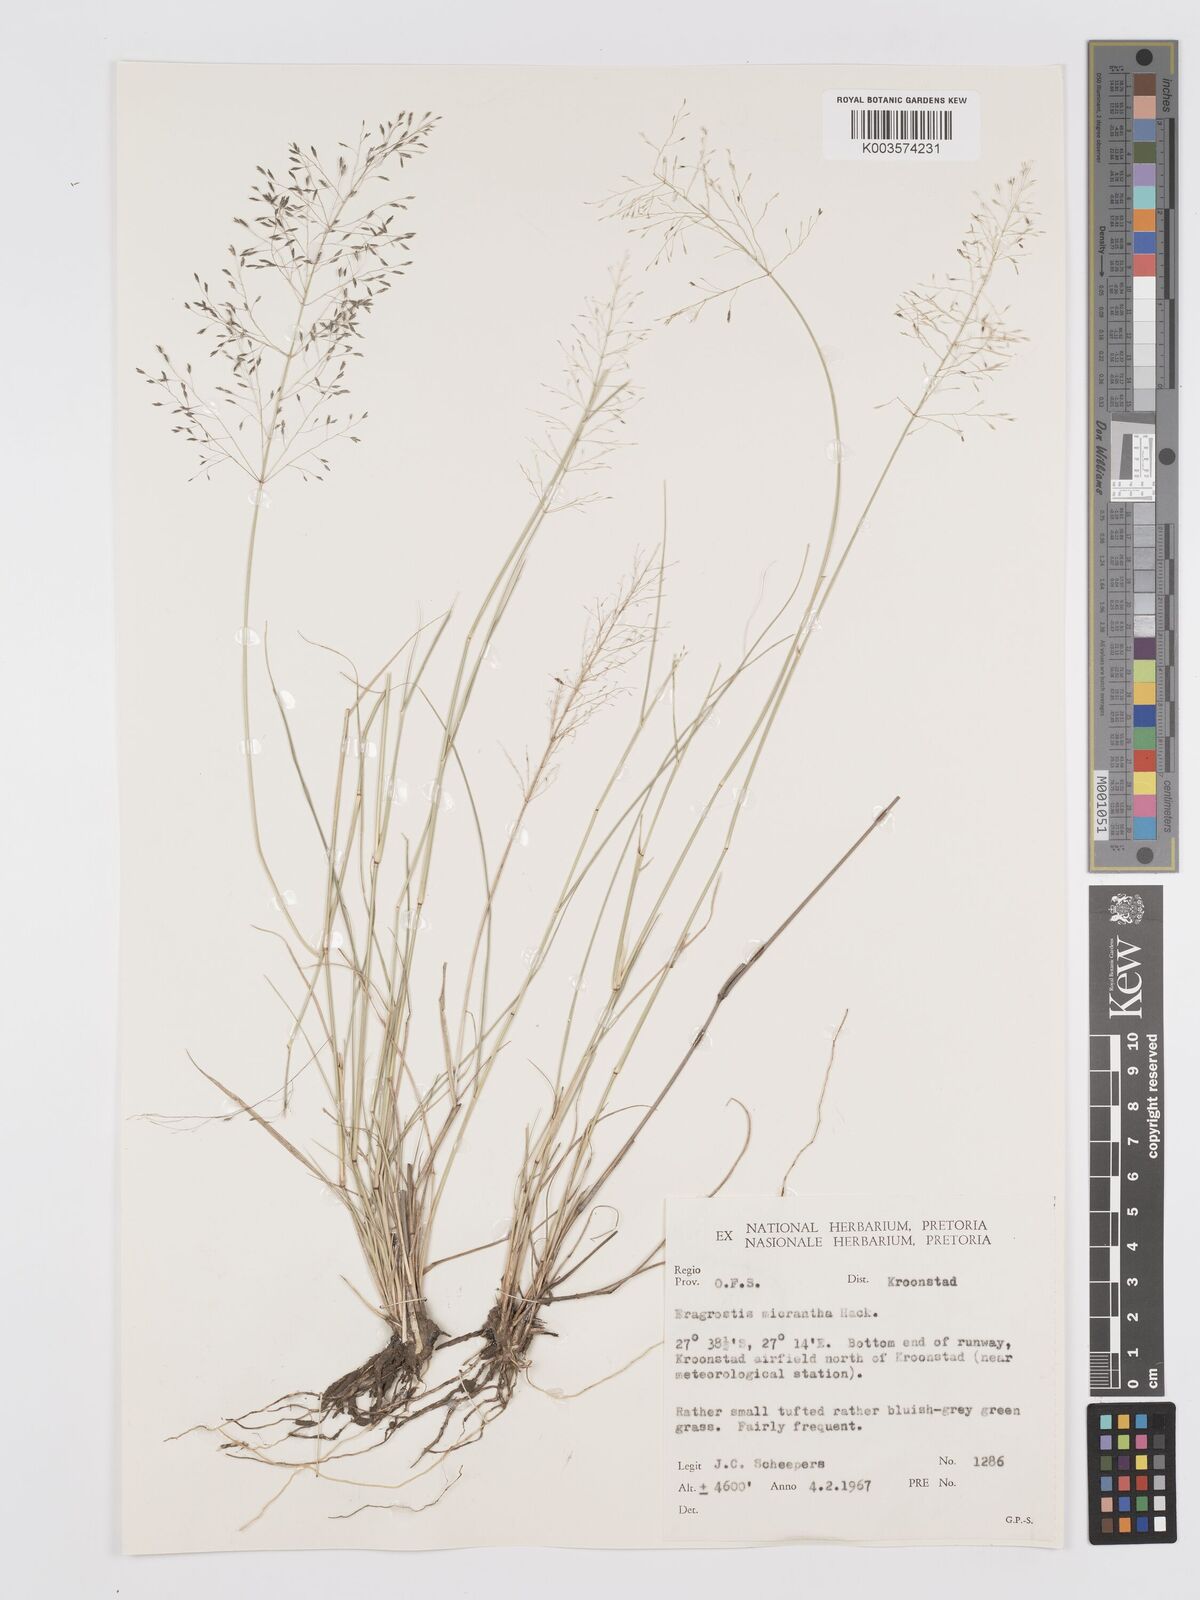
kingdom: Plantae
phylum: Tracheophyta
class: Liliopsida
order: Poales
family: Poaceae
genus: Eragrostis
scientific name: Eragrostis micrantha
